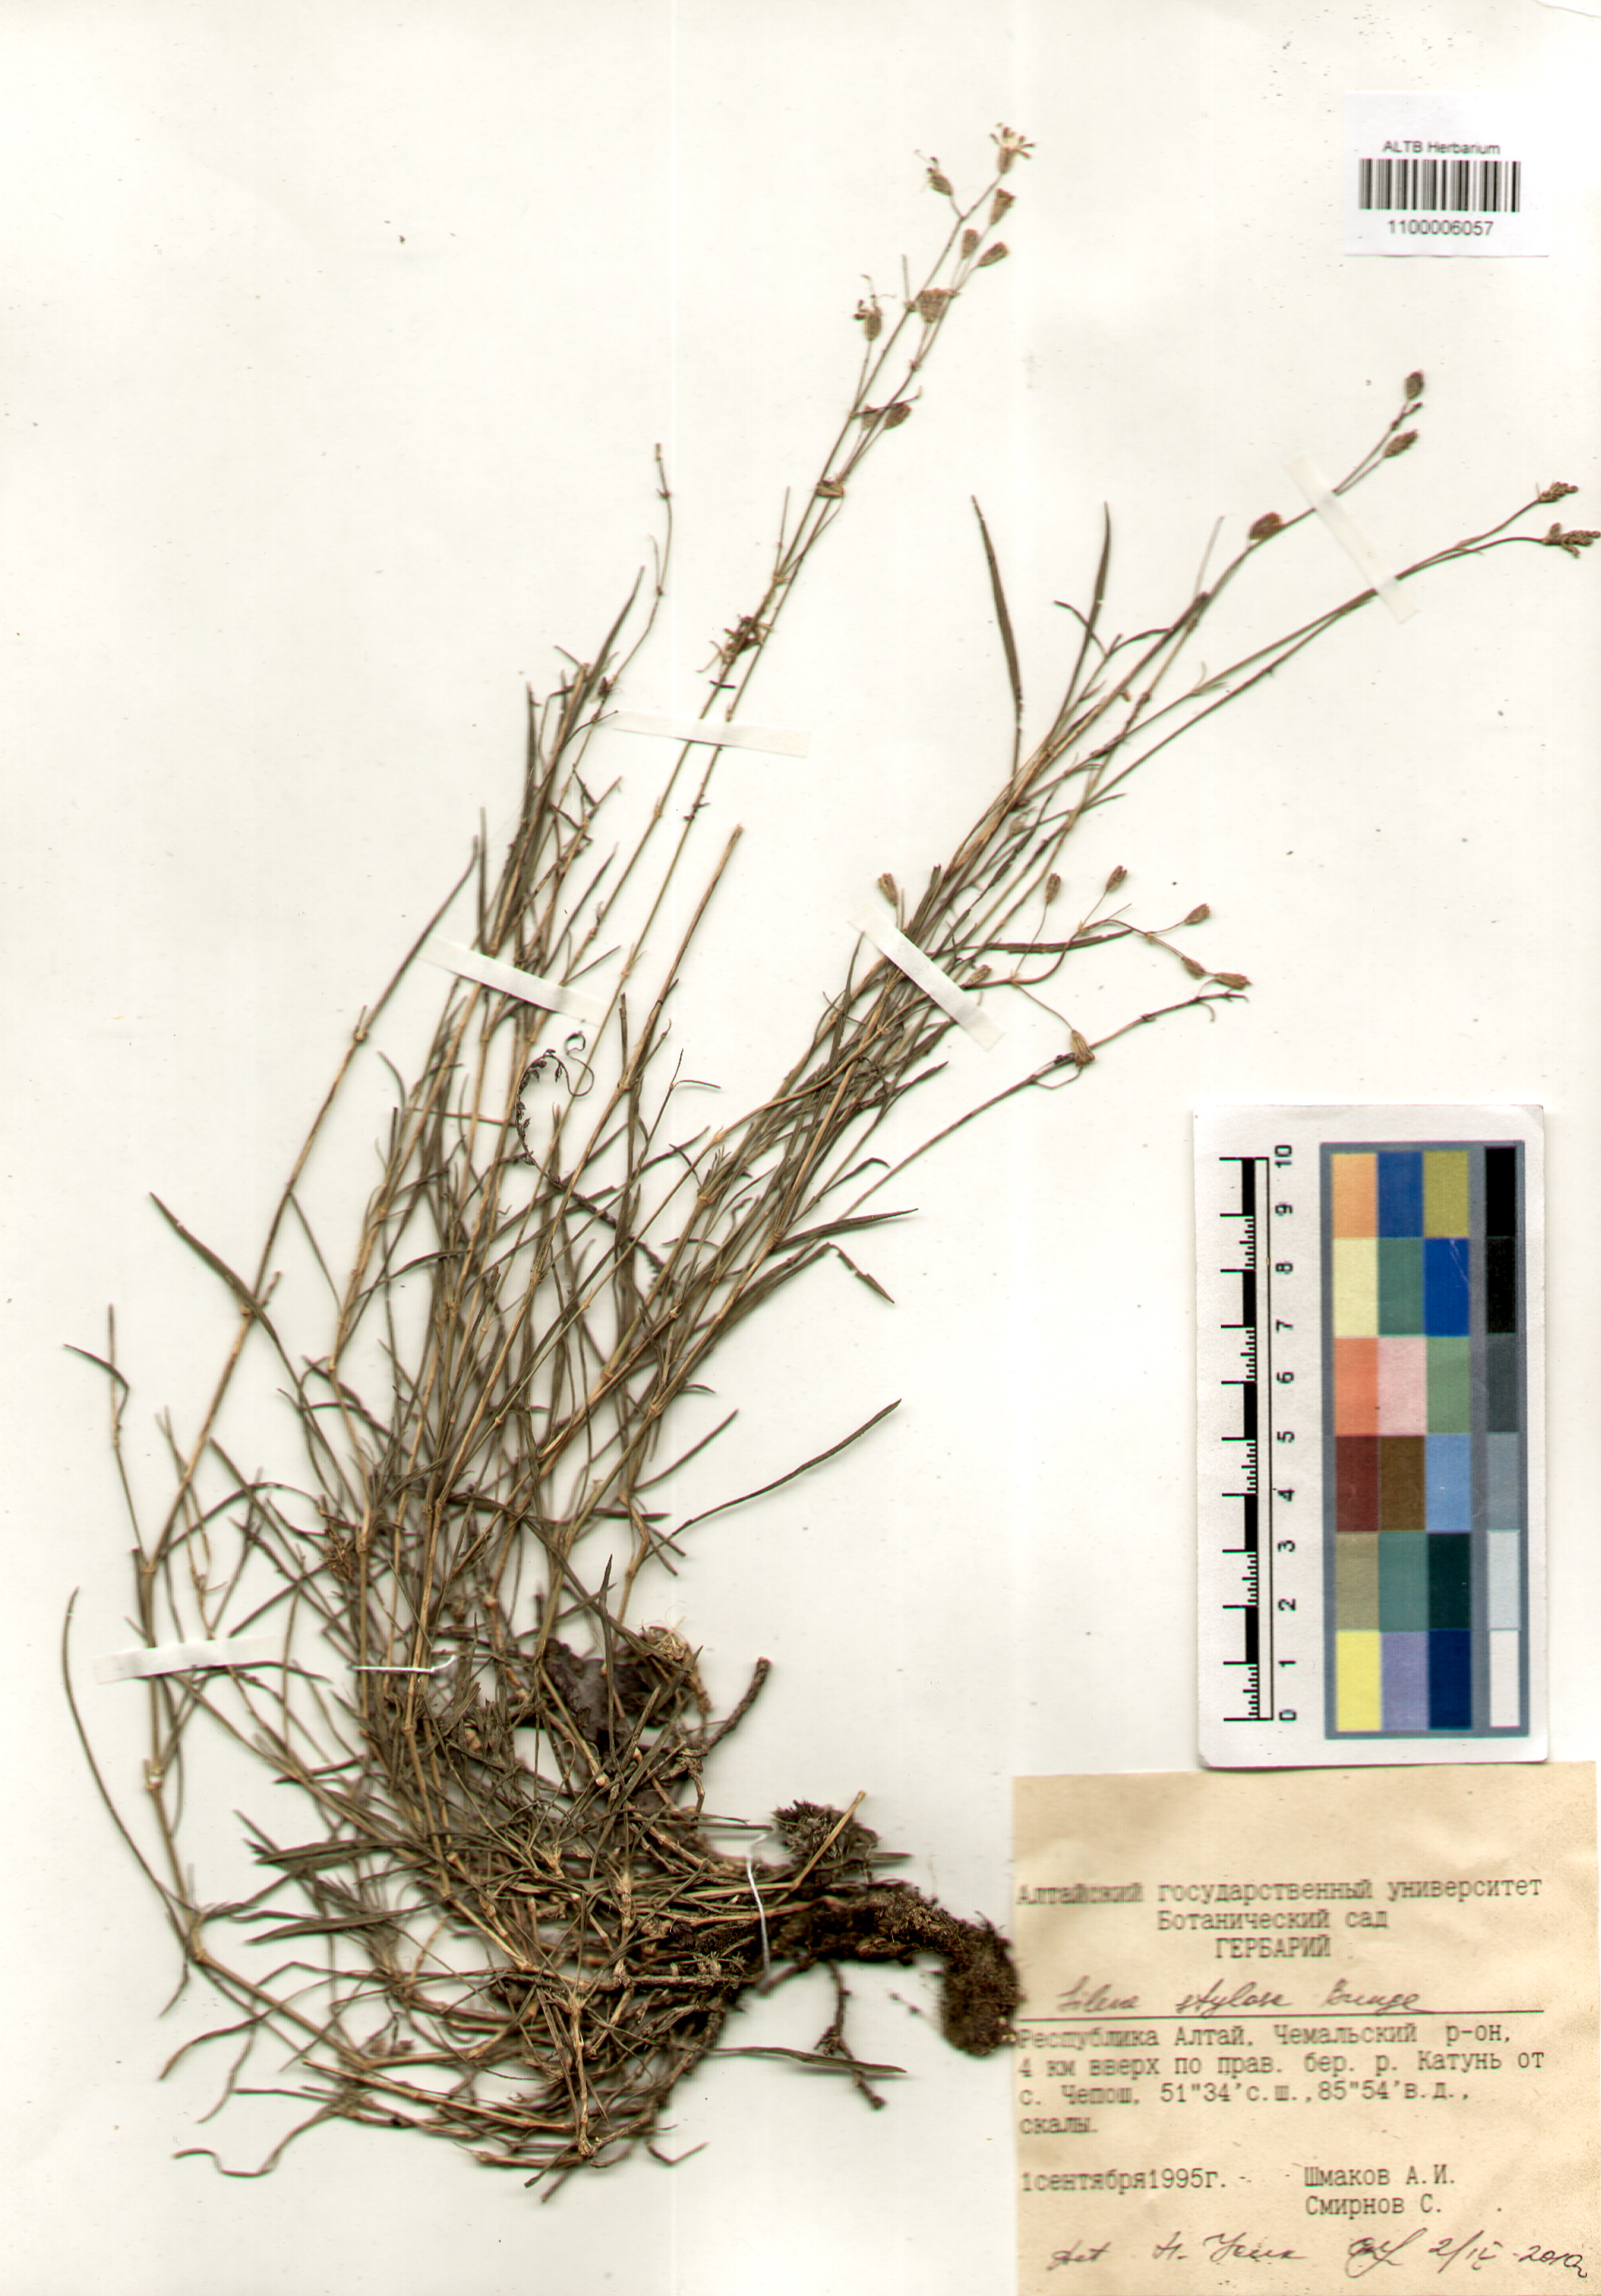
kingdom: Plantae
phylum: Tracheophyta
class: Magnoliopsida
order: Caryophyllales
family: Caryophyllaceae
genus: Silene
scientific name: Silene graminifolia
